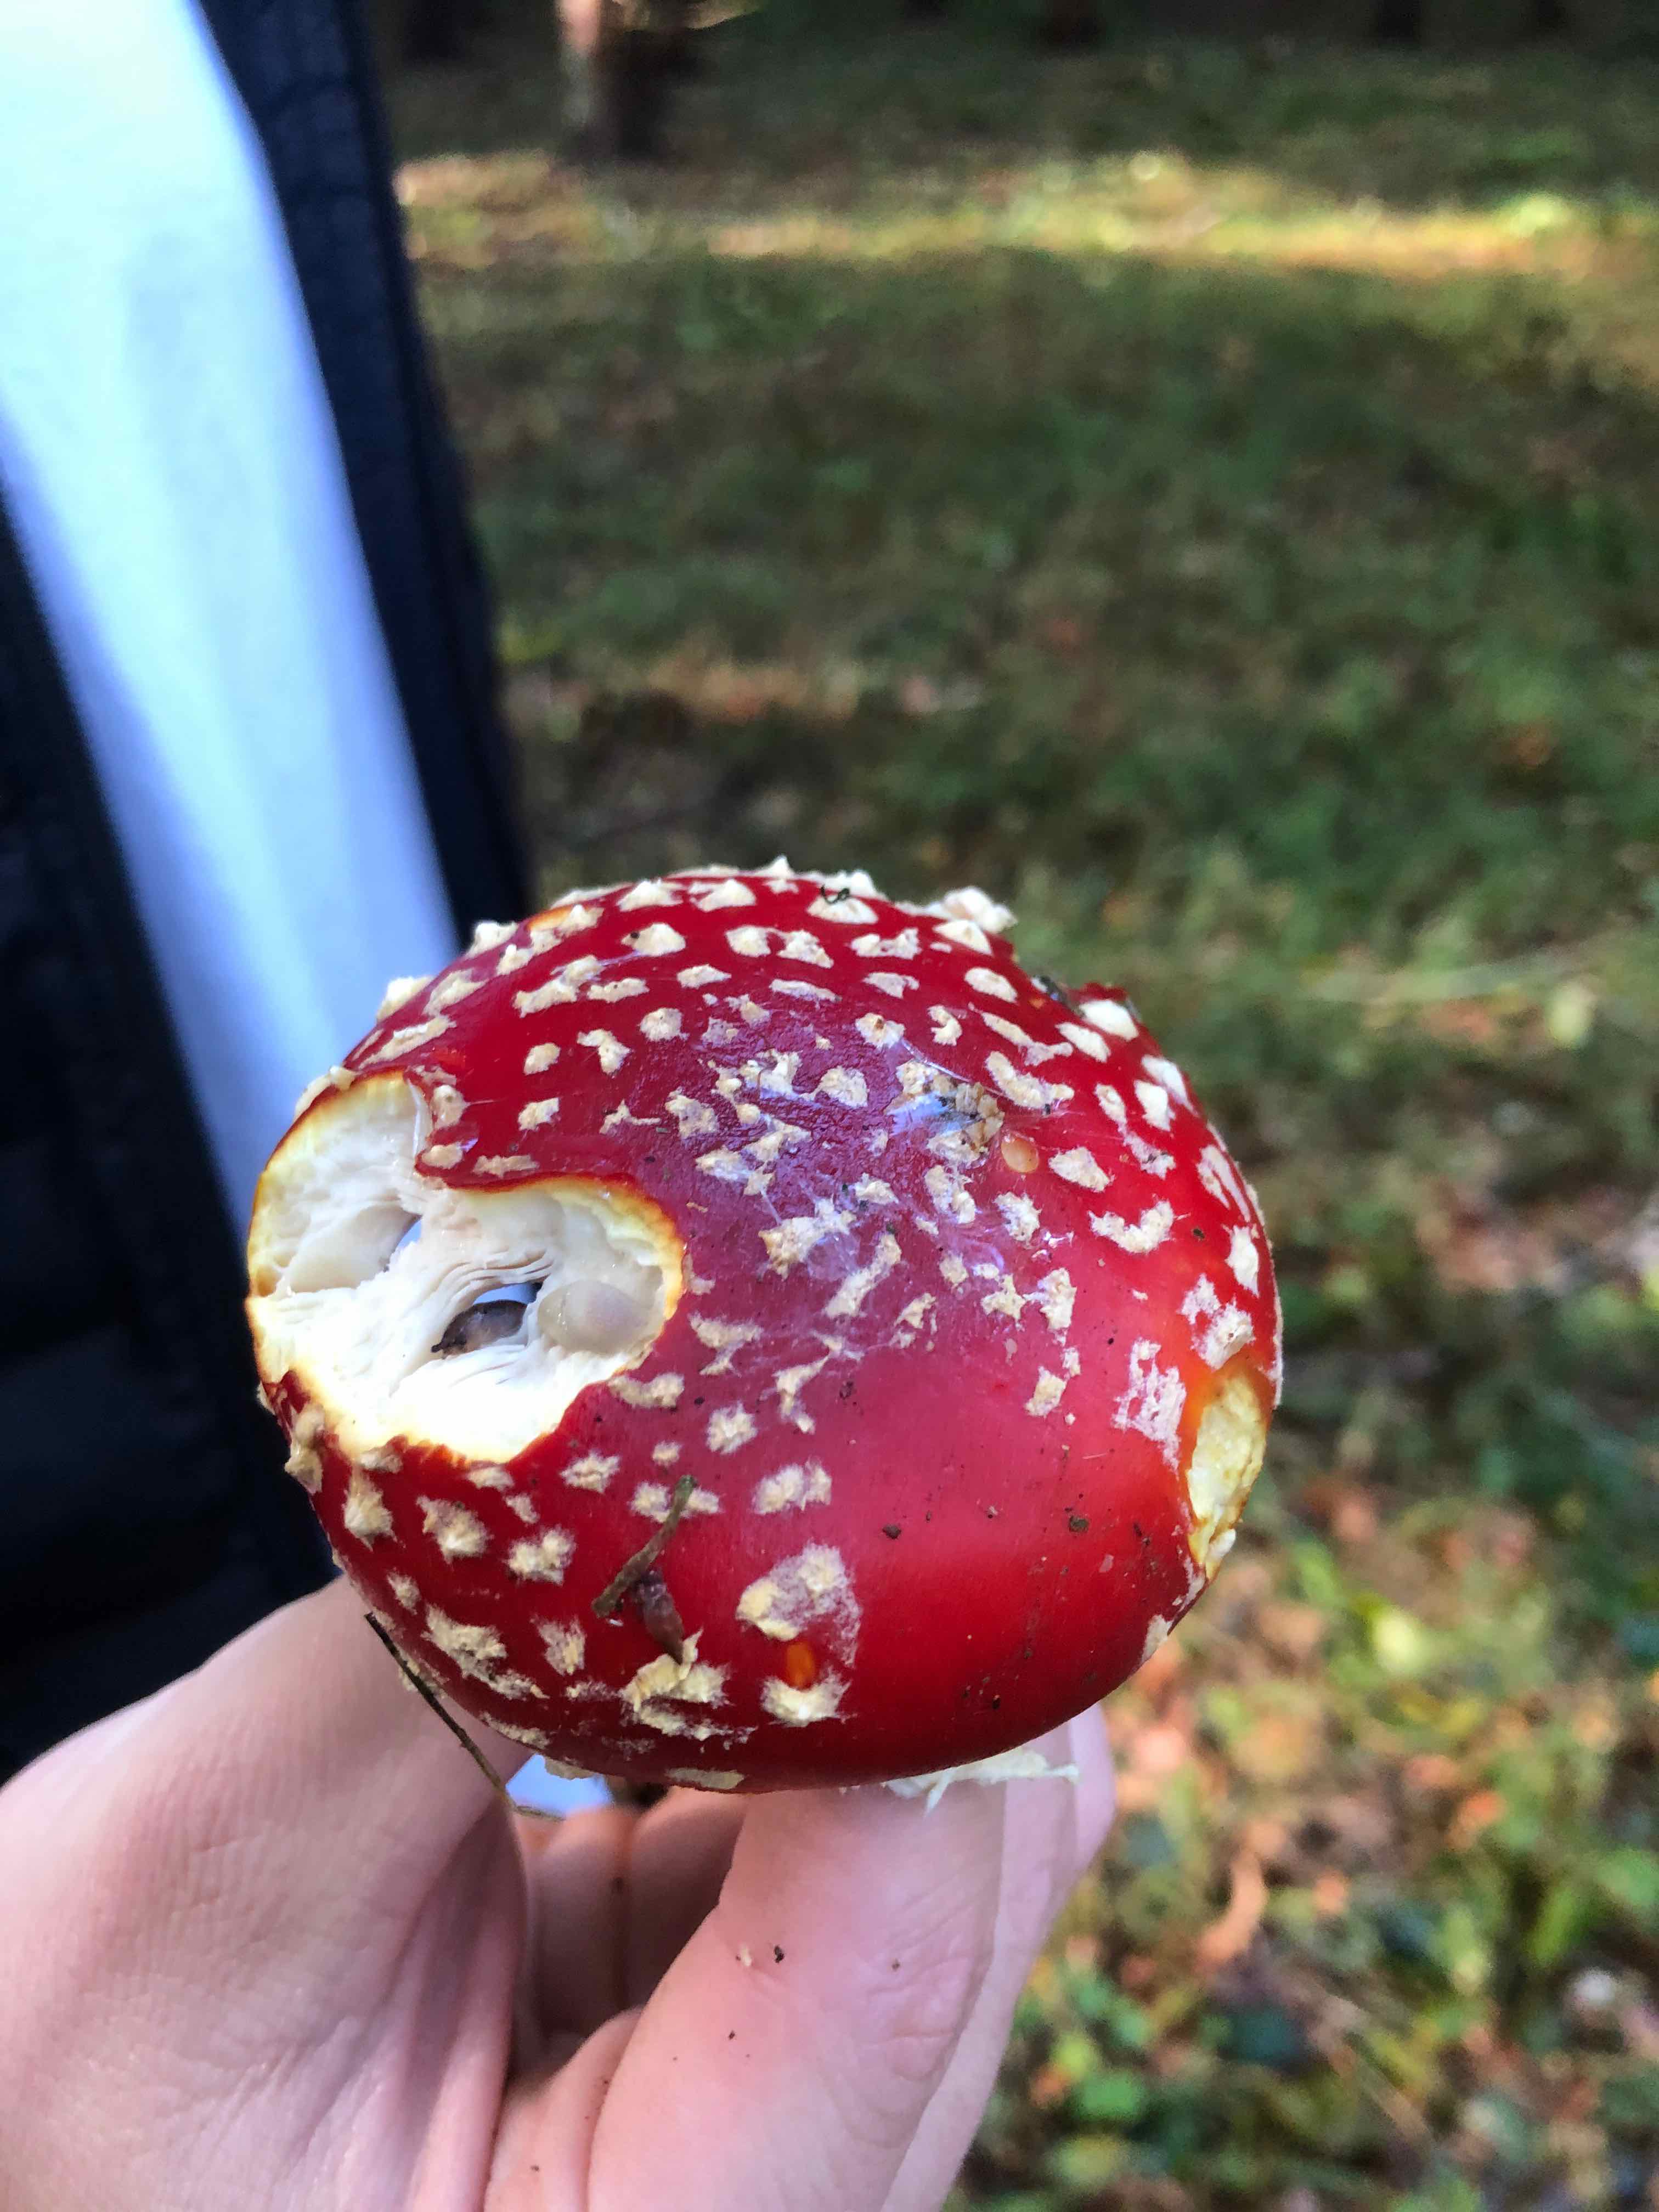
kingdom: Fungi
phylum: Basidiomycota
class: Agaricomycetes
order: Agaricales
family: Amanitaceae
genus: Amanita
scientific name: Amanita muscaria
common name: rød fluesvamp
